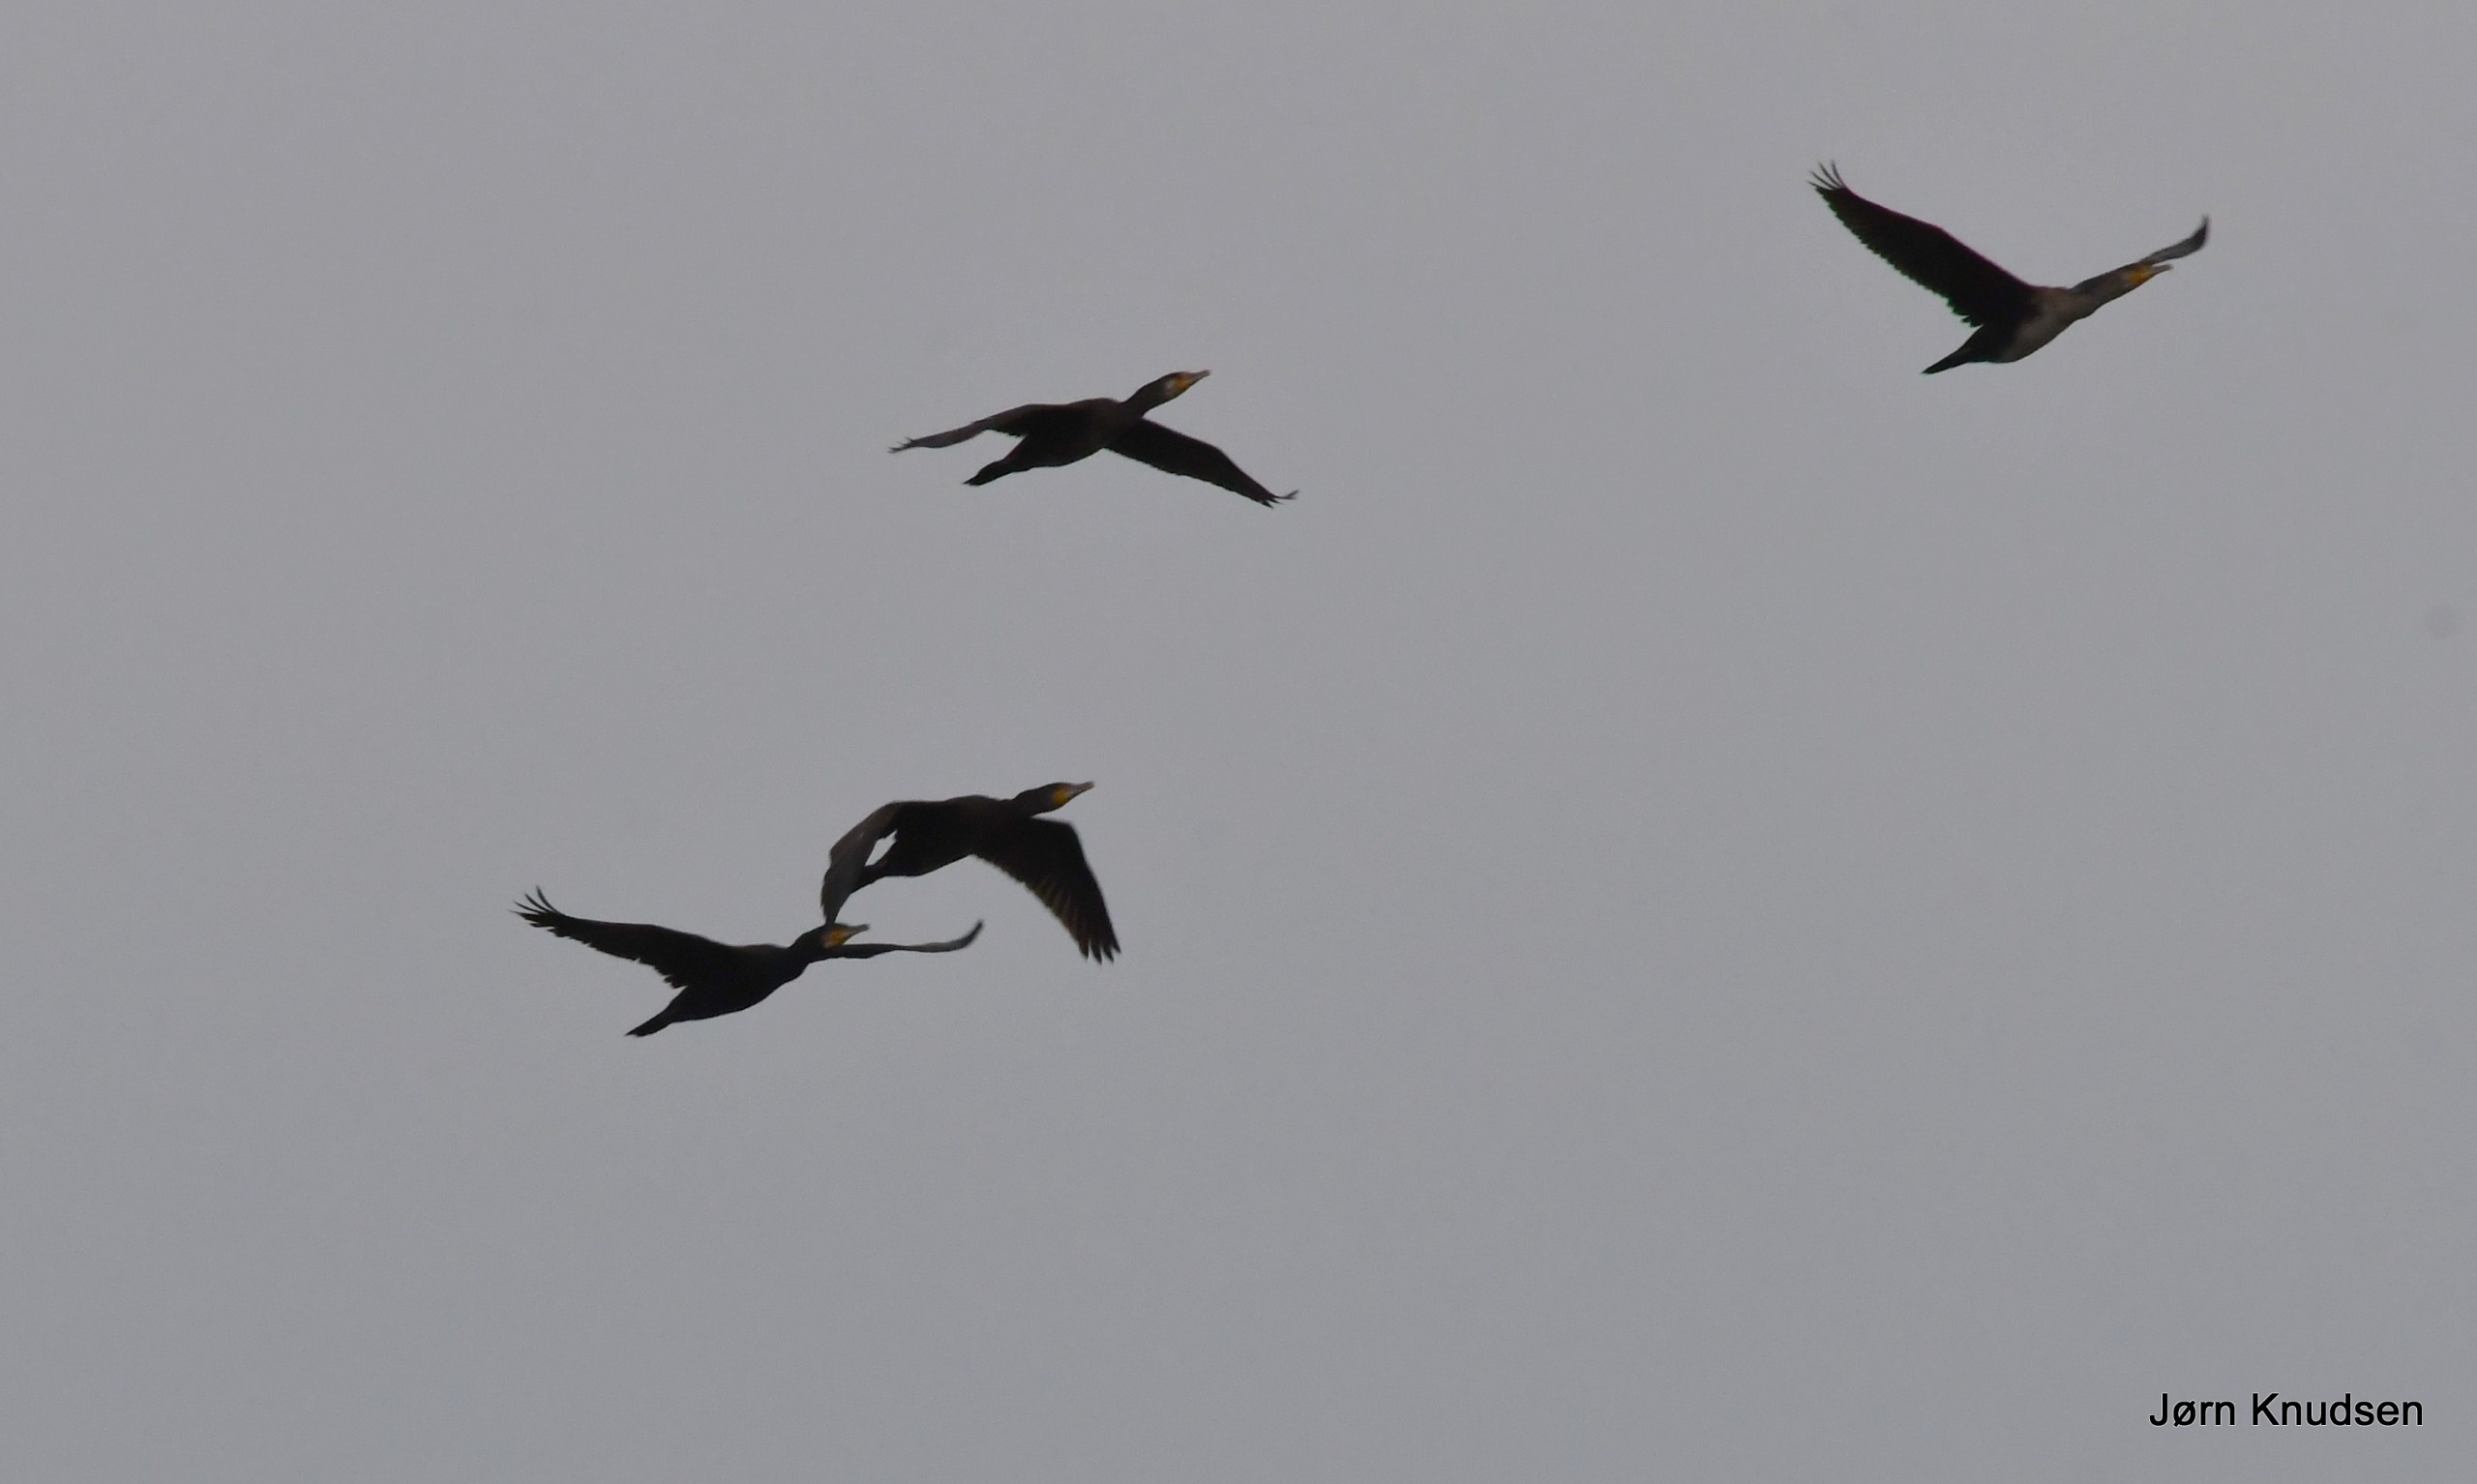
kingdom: Animalia
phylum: Chordata
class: Aves
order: Suliformes
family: Phalacrocoracidae
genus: Phalacrocorax
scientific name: Phalacrocorax carbo
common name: Skarv
